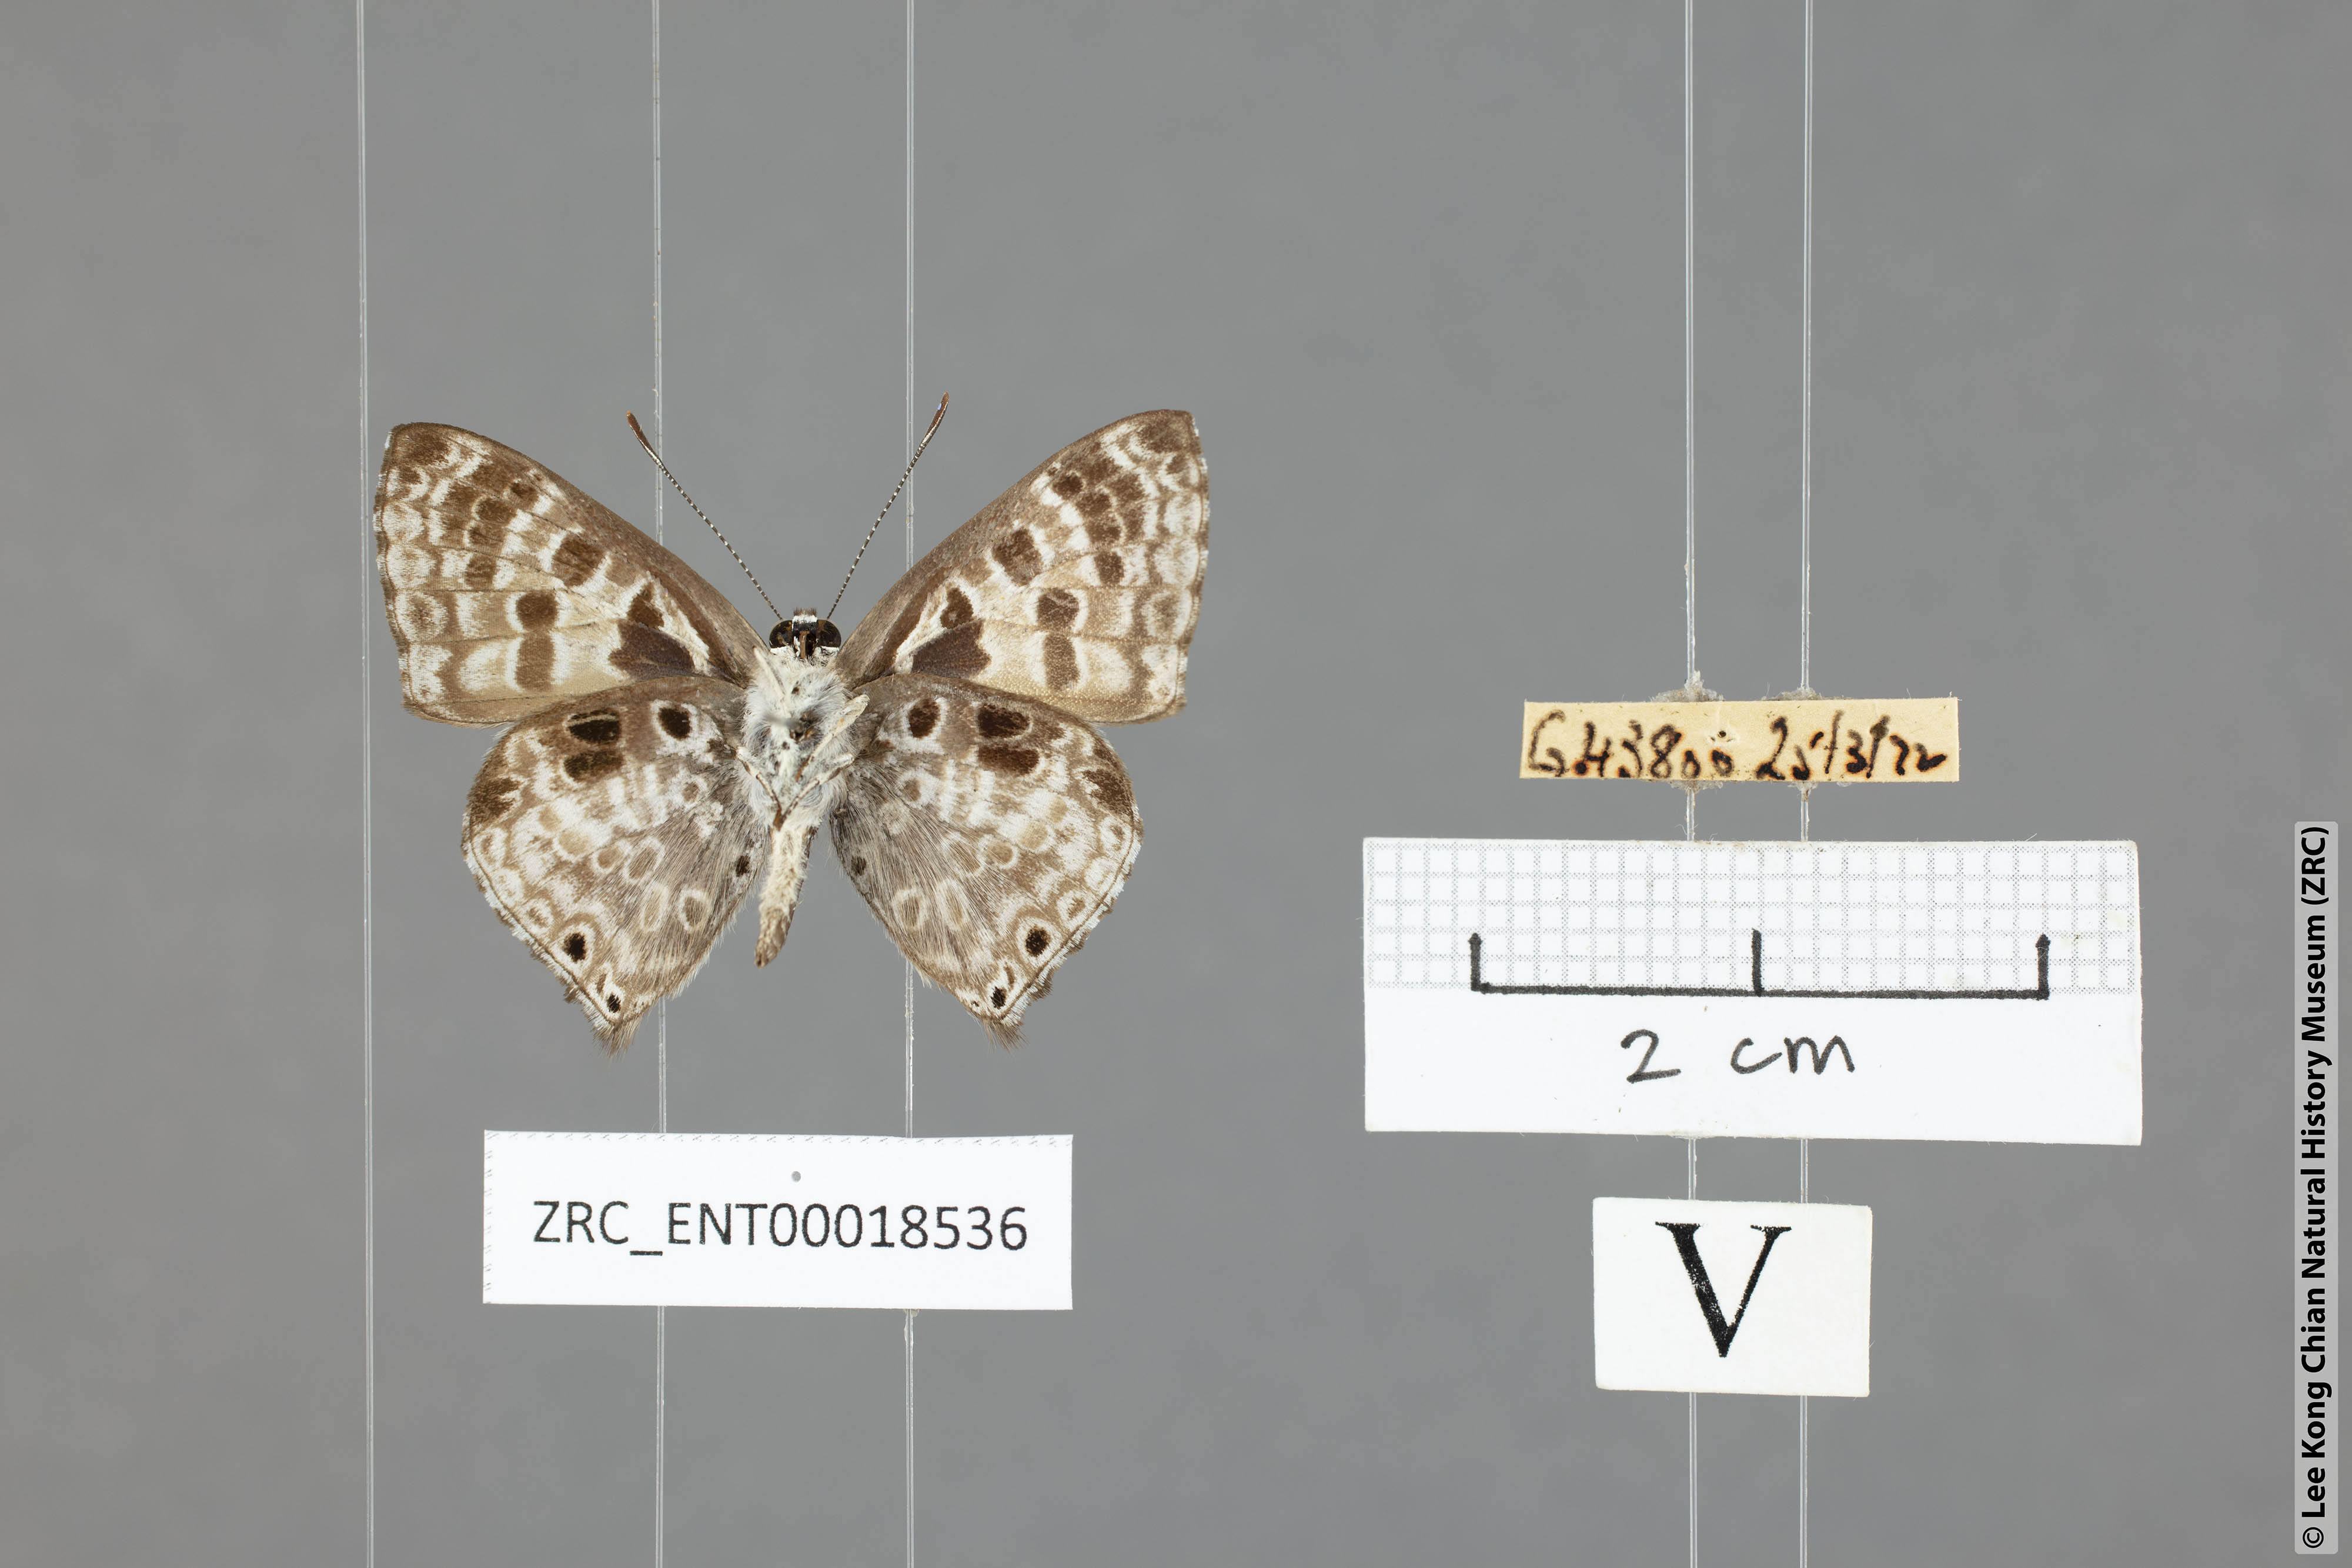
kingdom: Animalia
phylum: Arthropoda
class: Insecta
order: Lepidoptera
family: Lycaenidae
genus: Niphanda
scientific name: Niphanda tessellata
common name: Large pointed pierrot
